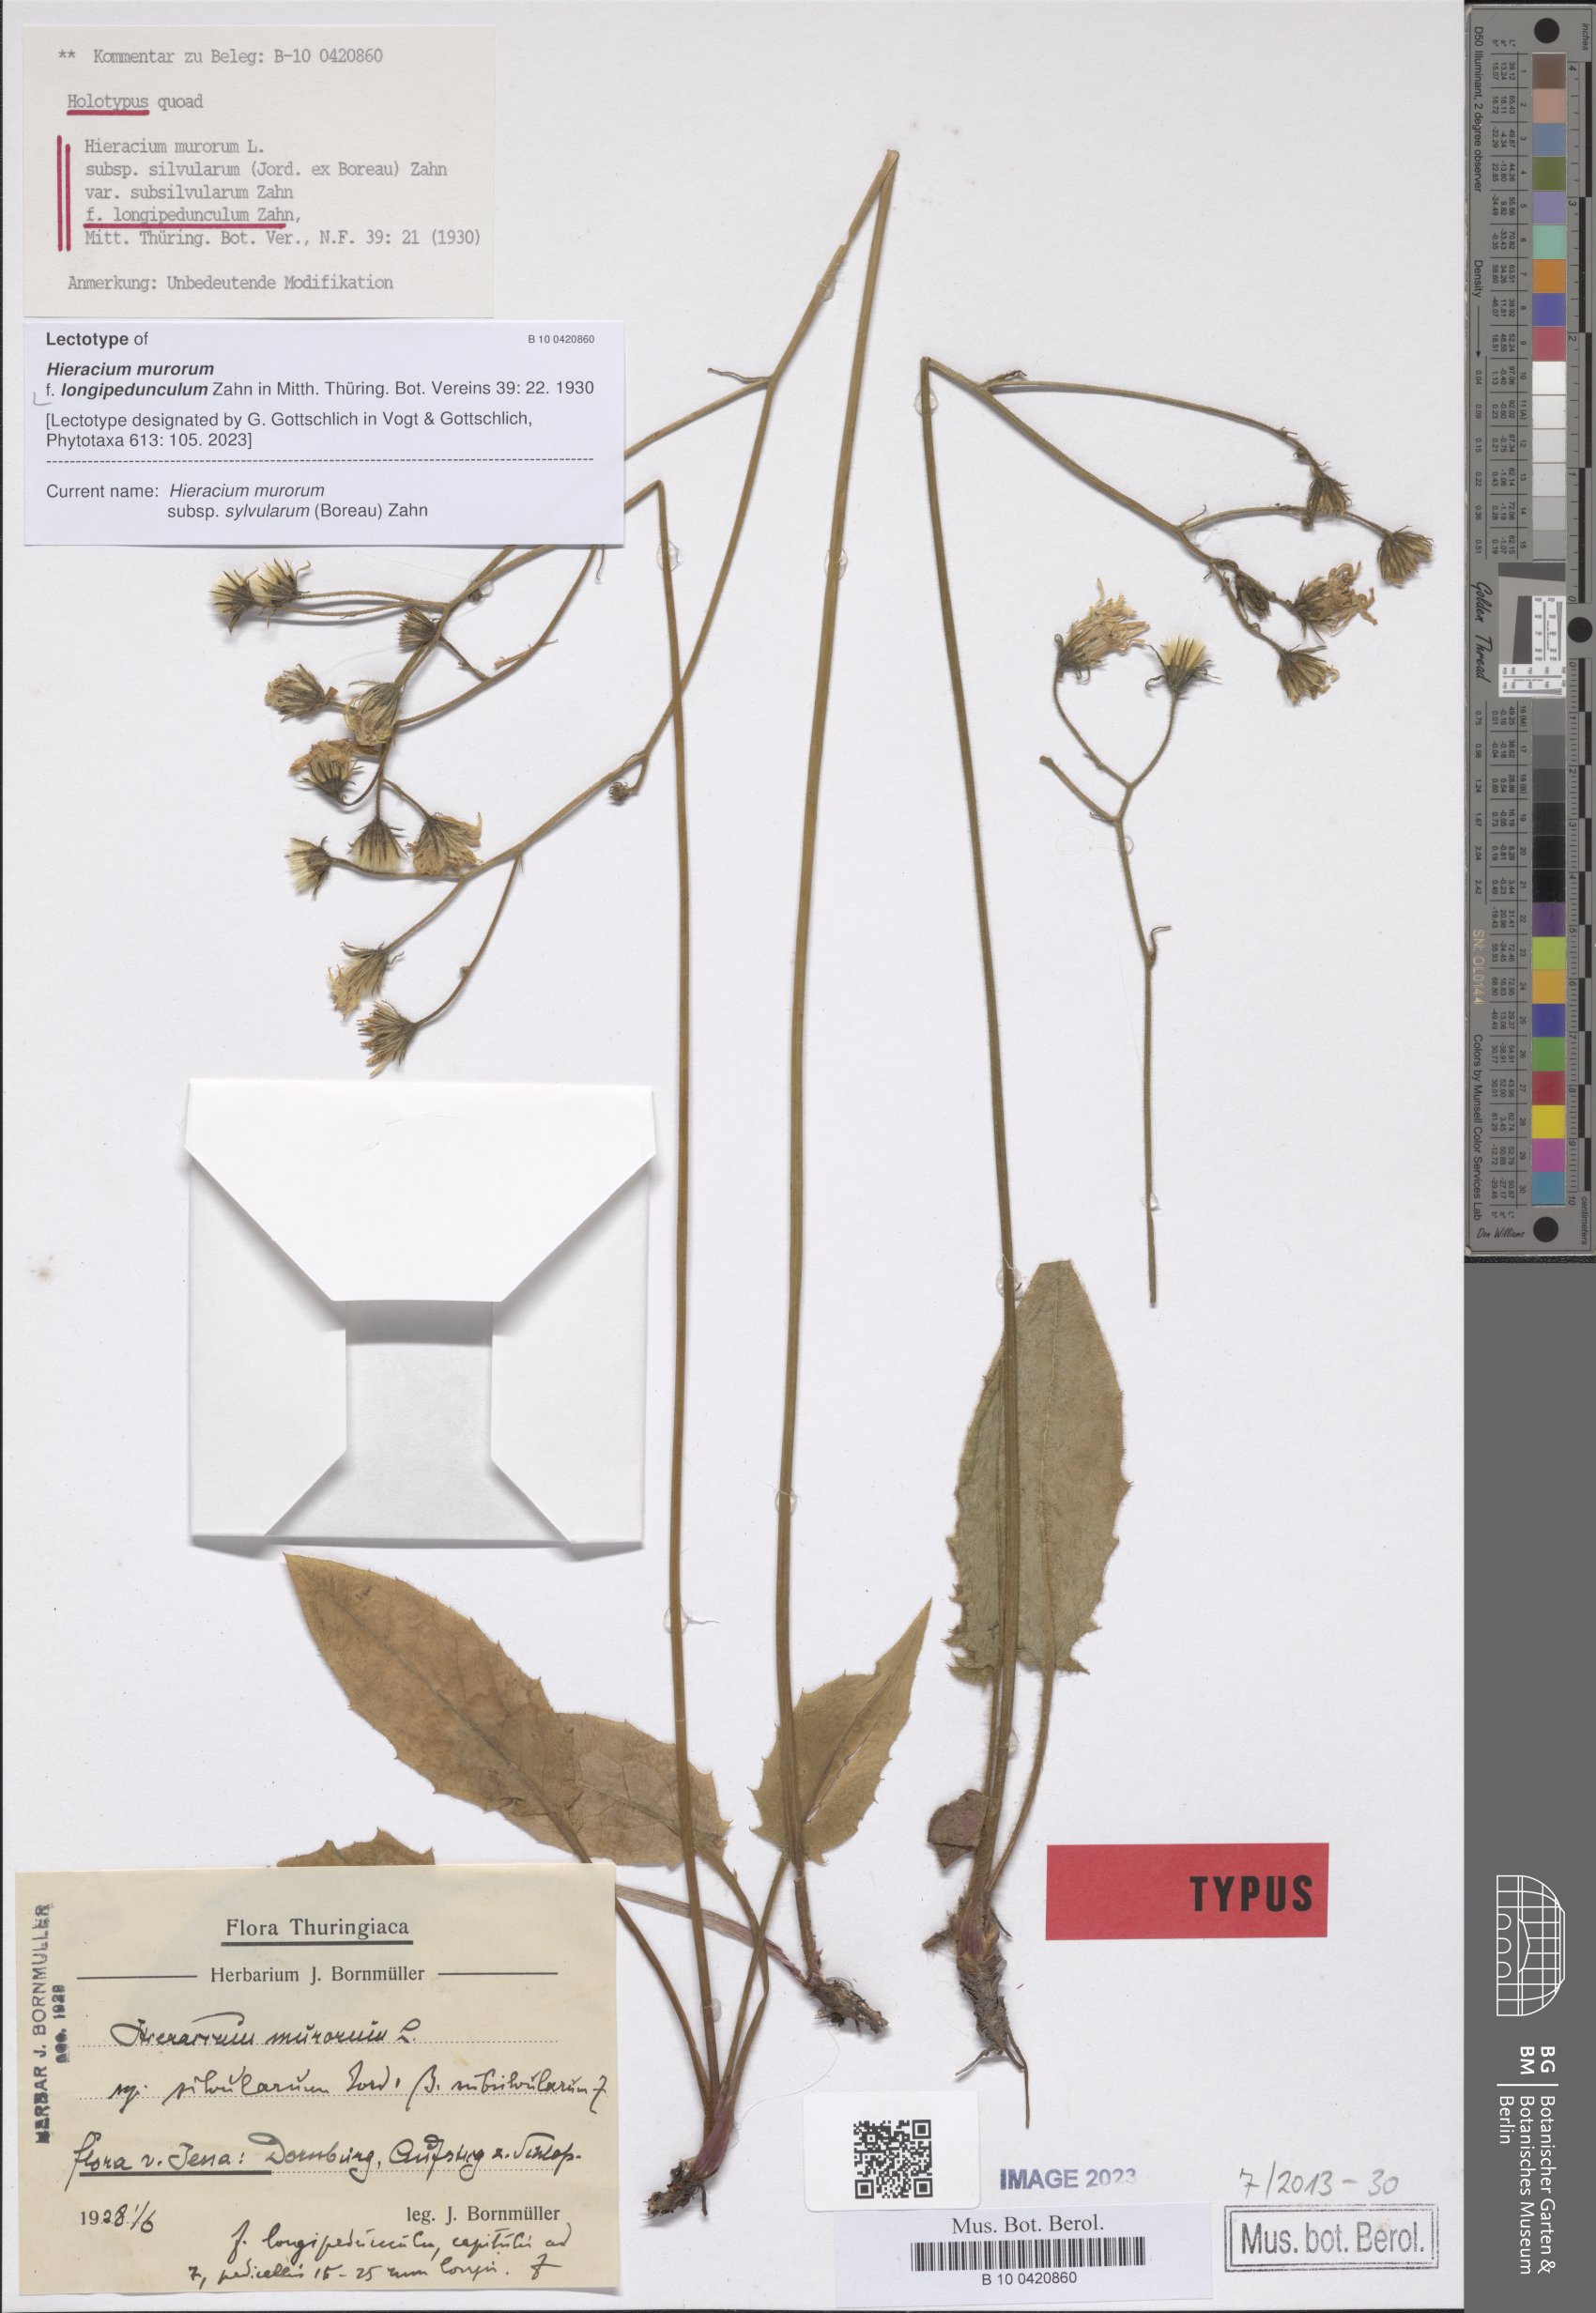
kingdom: Plantae
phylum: Tracheophyta
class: Magnoliopsida
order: Asterales
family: Asteraceae
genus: Hieracium
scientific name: Hieracium murorum
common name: Wall hawkweed
